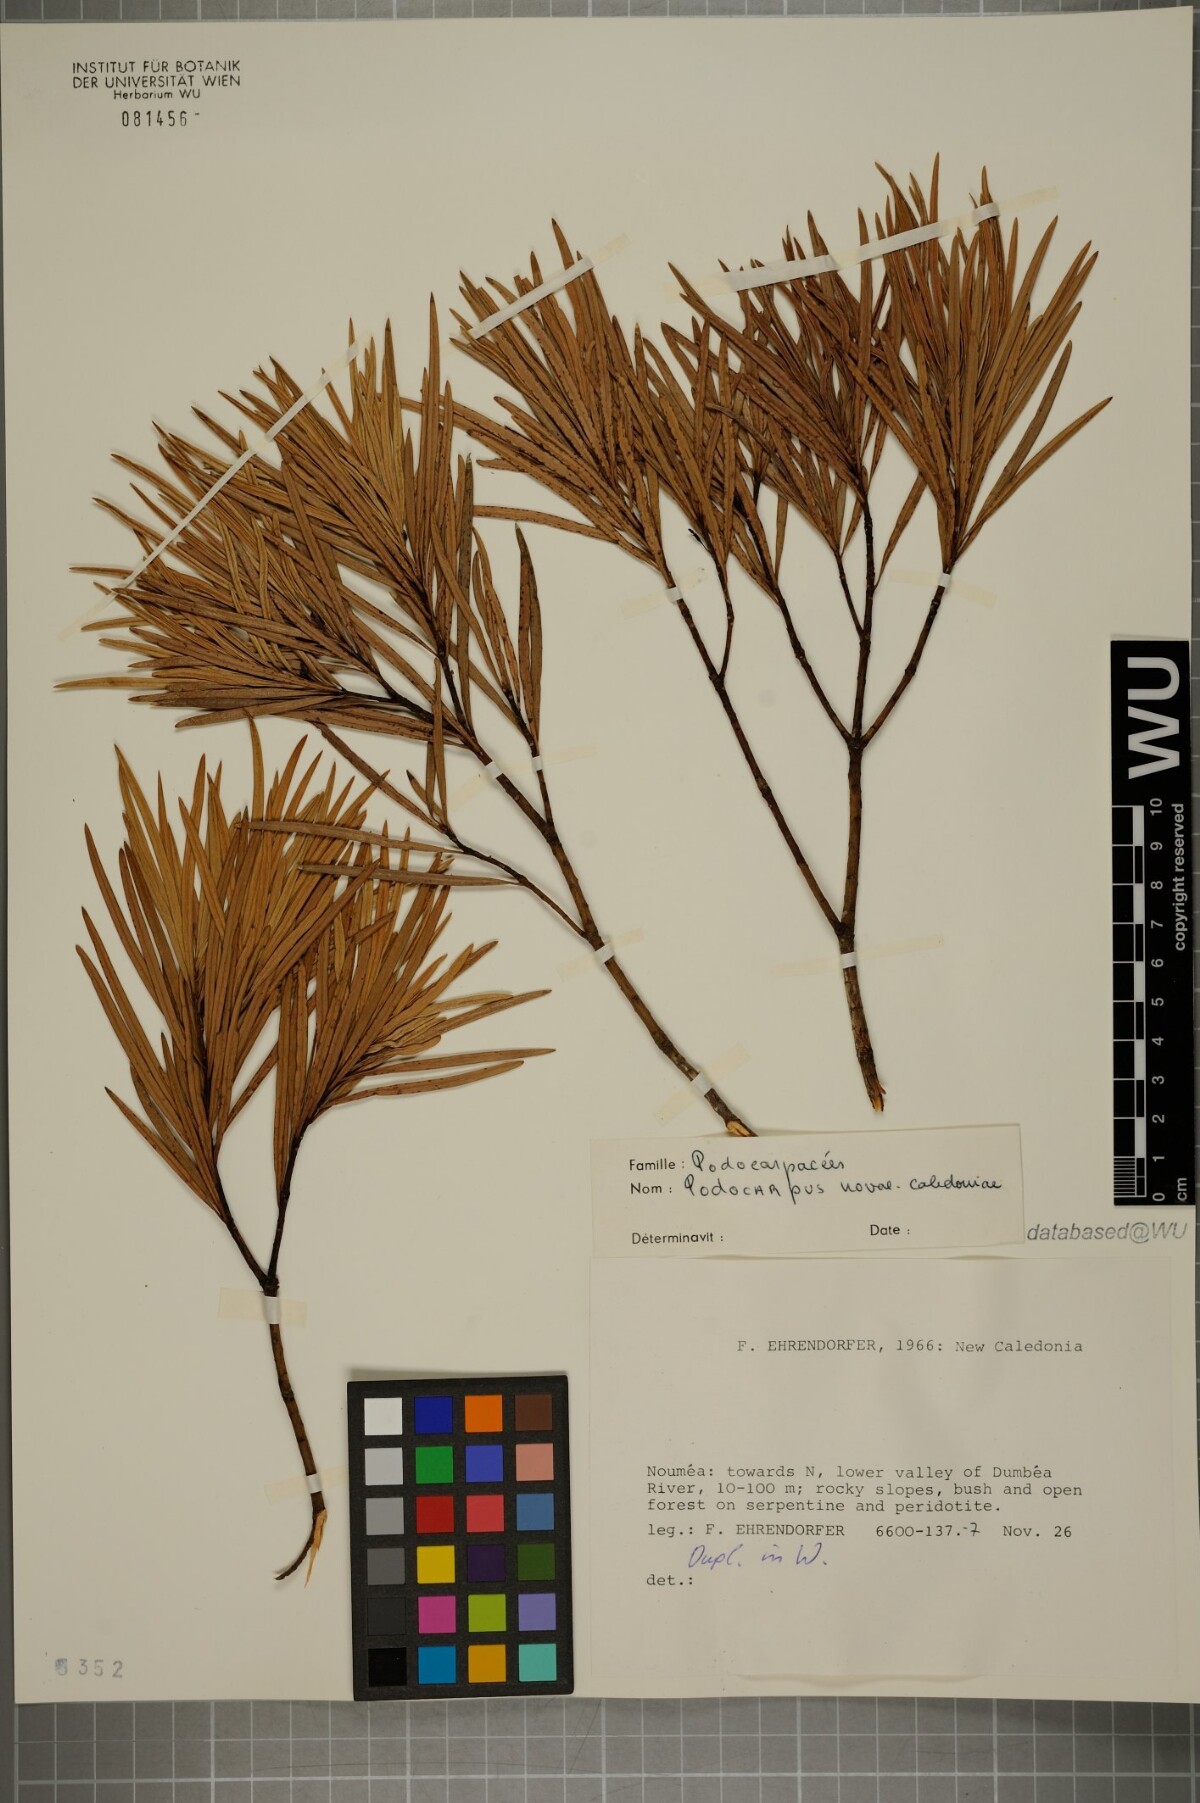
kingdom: Plantae
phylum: Tracheophyta
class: Pinopsida
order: Pinales
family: Podocarpaceae
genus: Podocarpus
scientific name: Podocarpus novae-caledoniae
